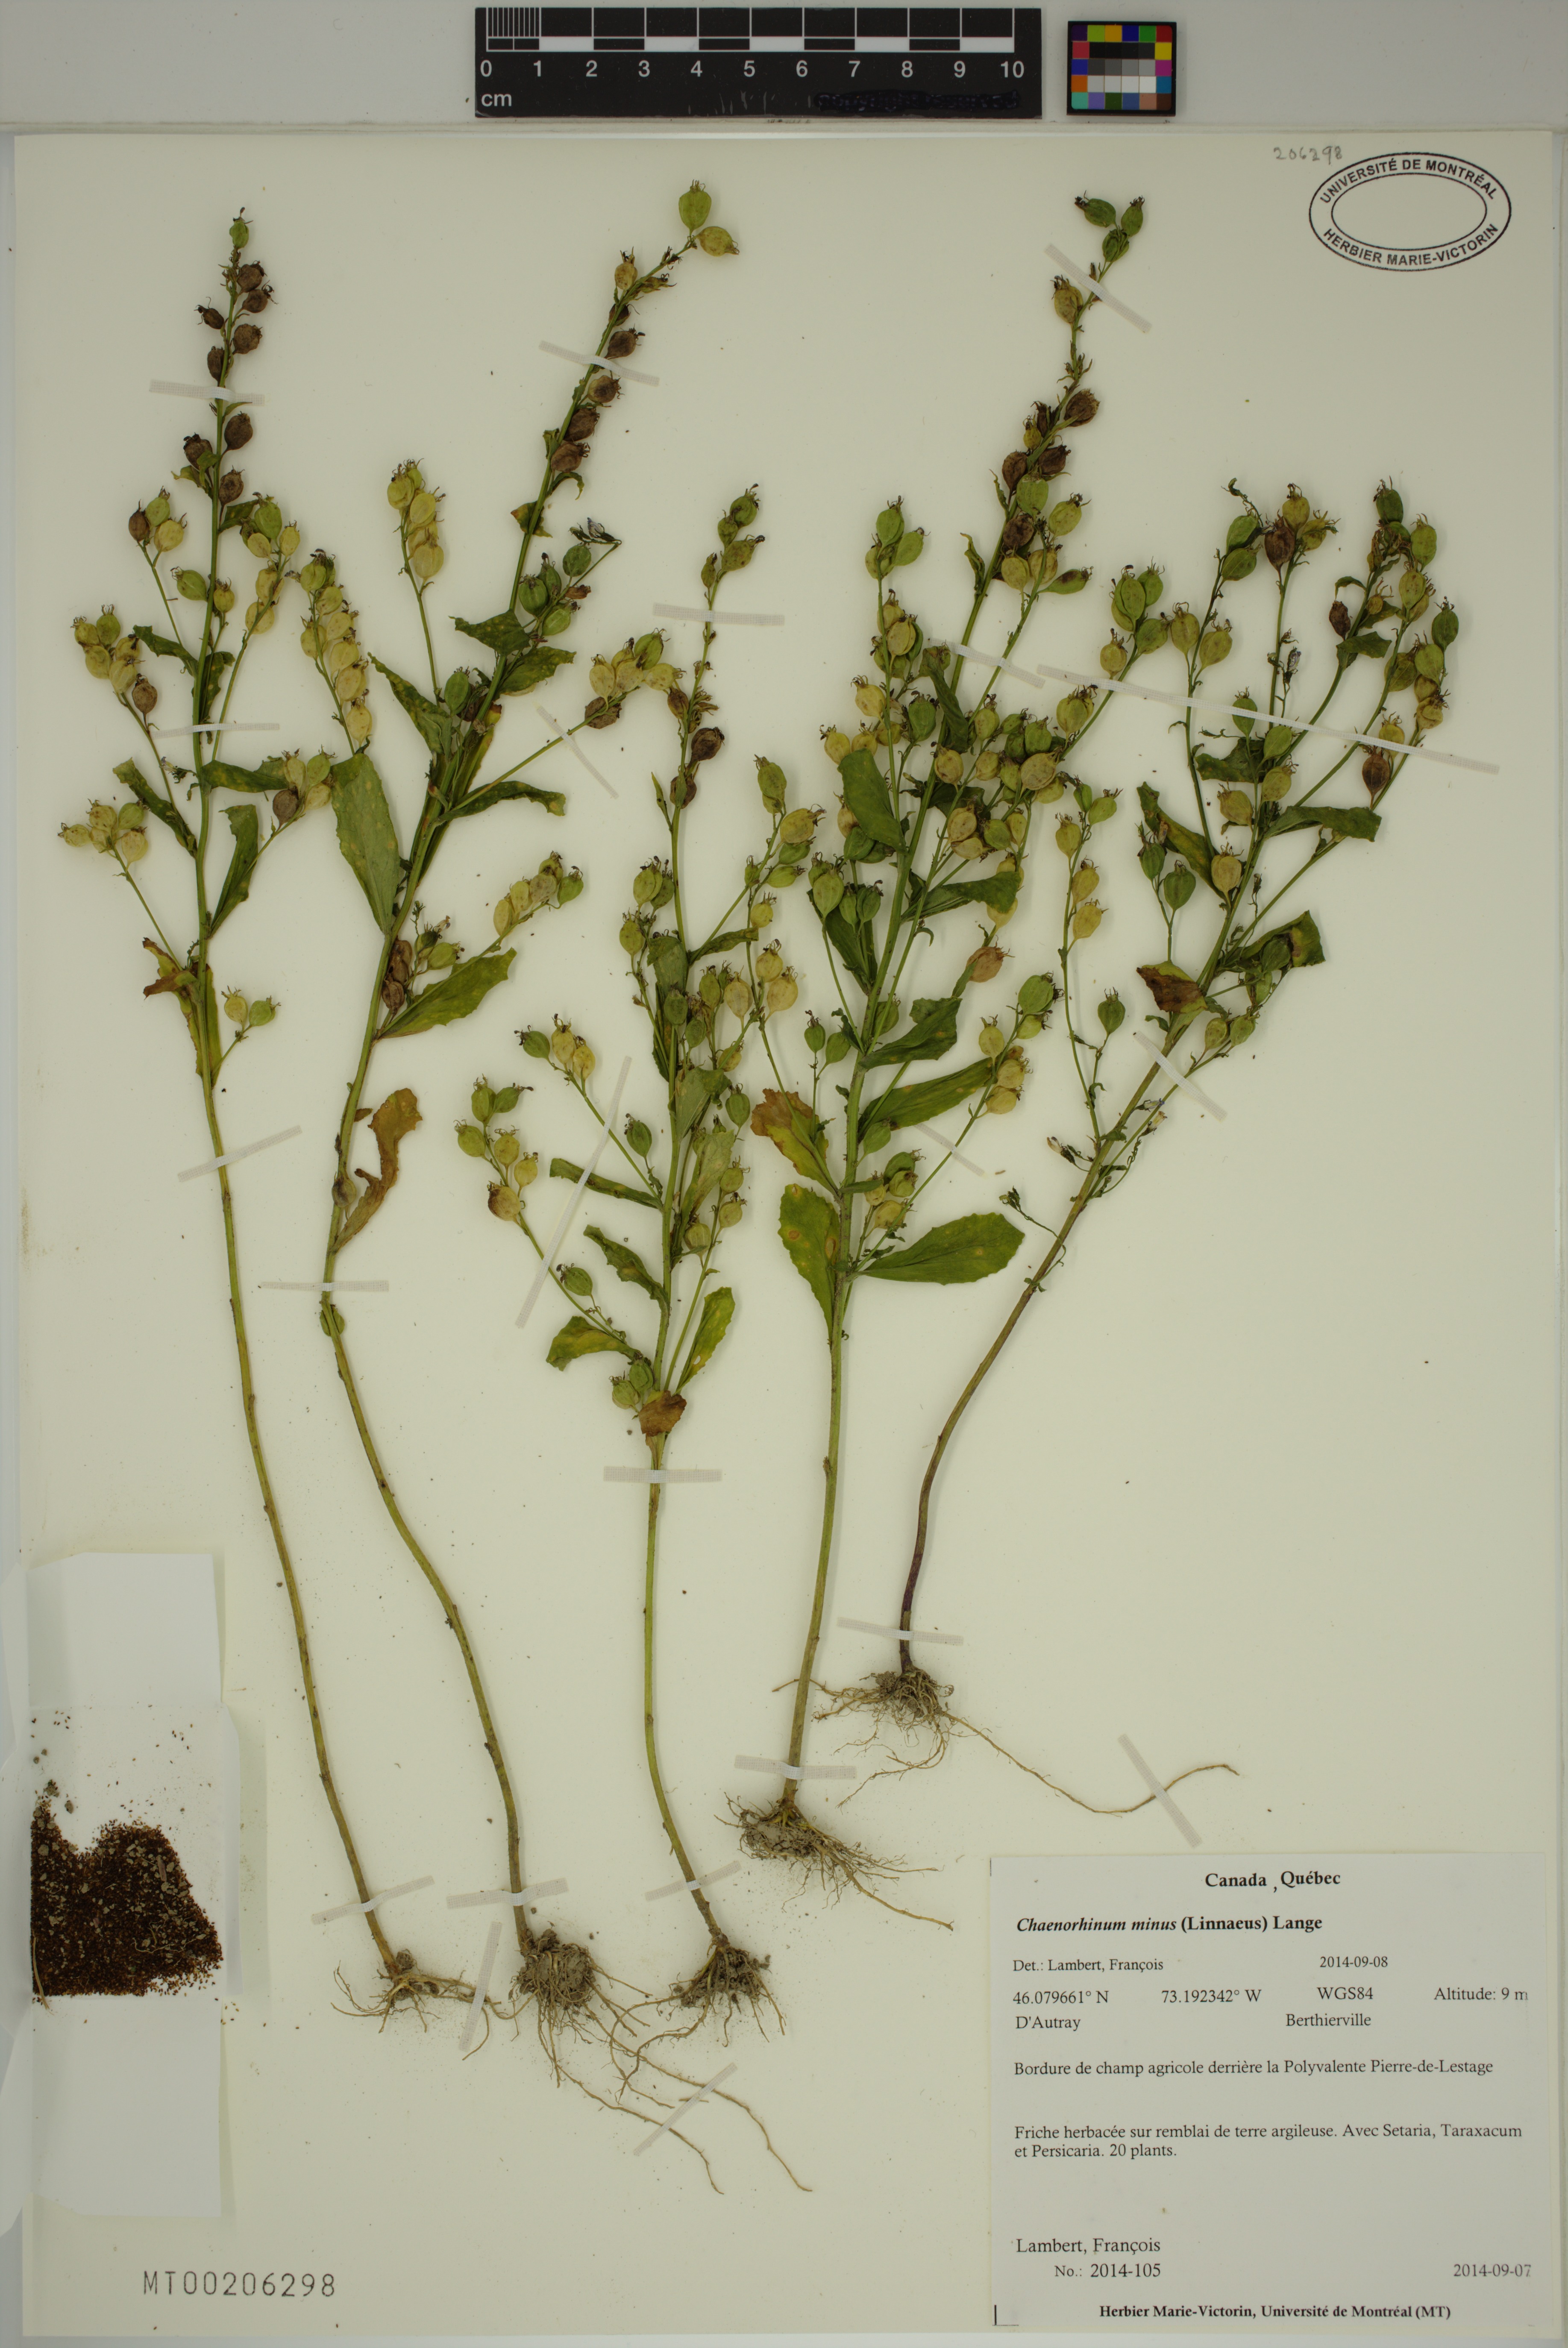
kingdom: Plantae
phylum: Tracheophyta
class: Magnoliopsida
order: Lamiales
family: Plantaginaceae
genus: Chaenorhinum
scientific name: Chaenorhinum minus
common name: Dwarf snapdragon
